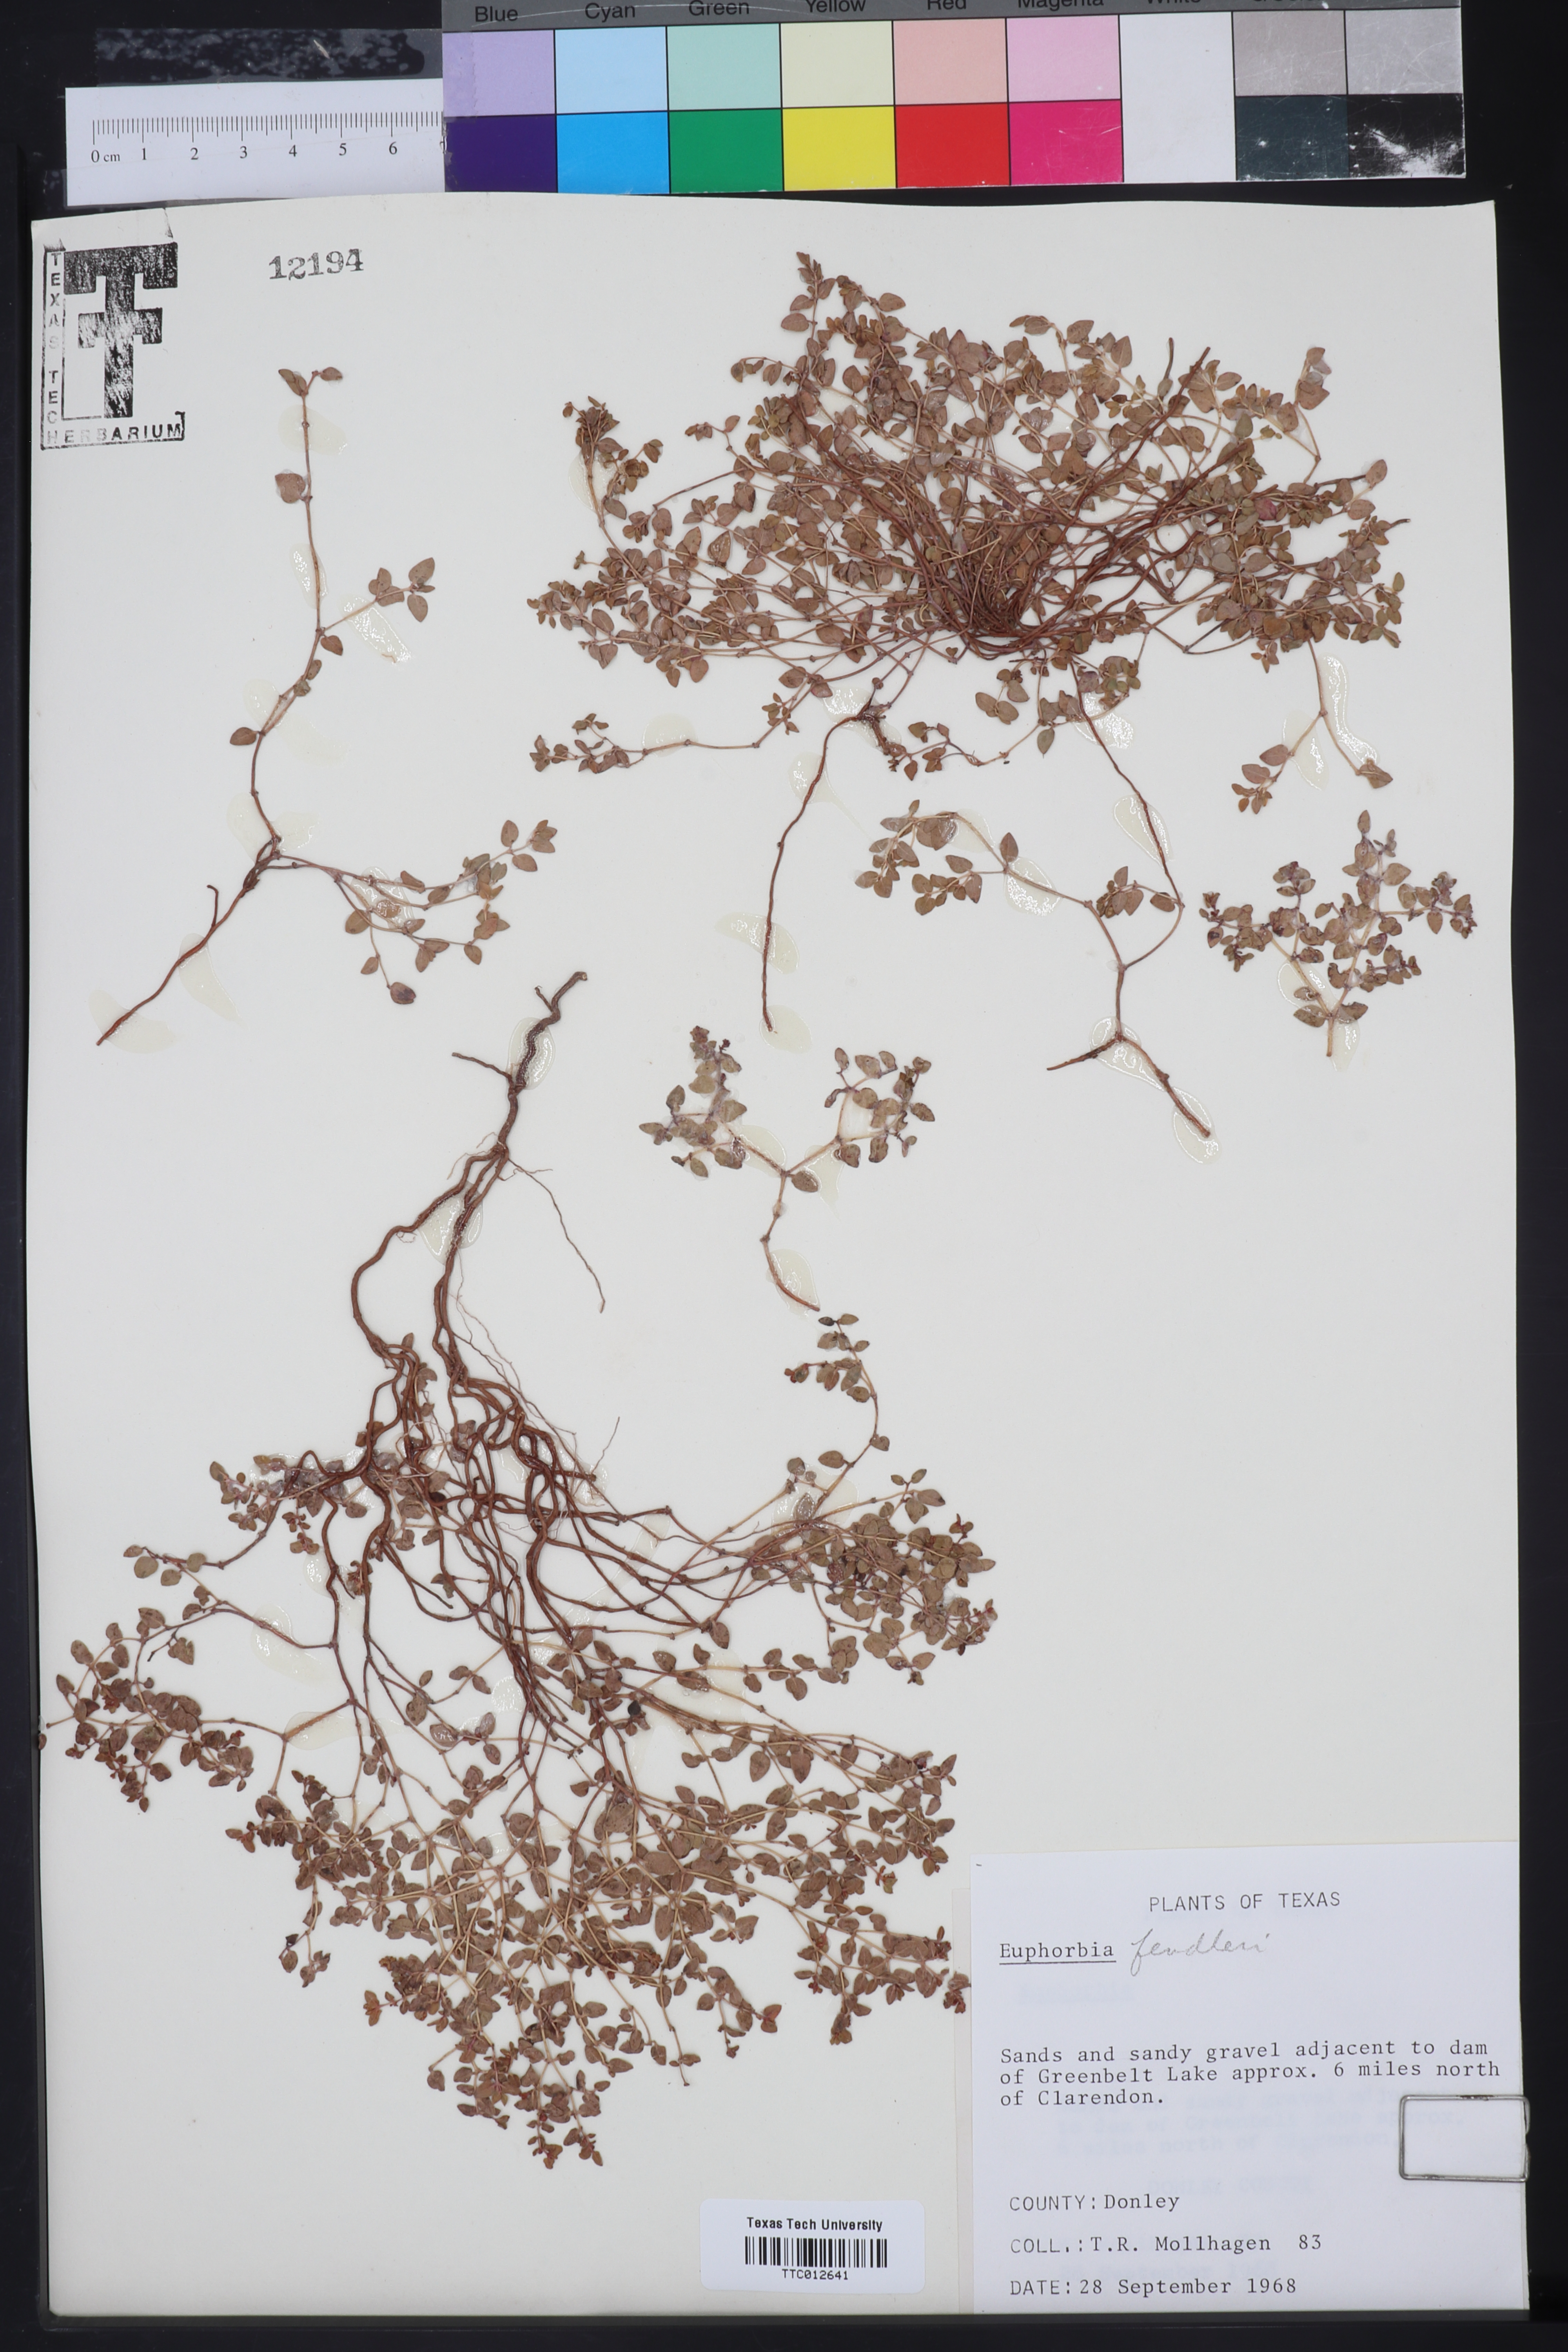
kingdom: Plantae
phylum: Tracheophyta
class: Magnoliopsida
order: Malpighiales
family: Euphorbiaceae
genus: Euphorbia
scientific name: Euphorbia fendleri
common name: Fendler's euphorbia
